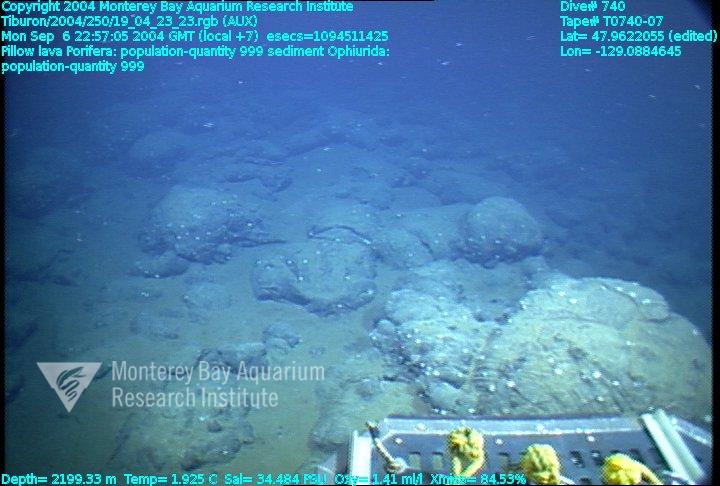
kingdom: Animalia
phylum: Porifera
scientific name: Porifera
